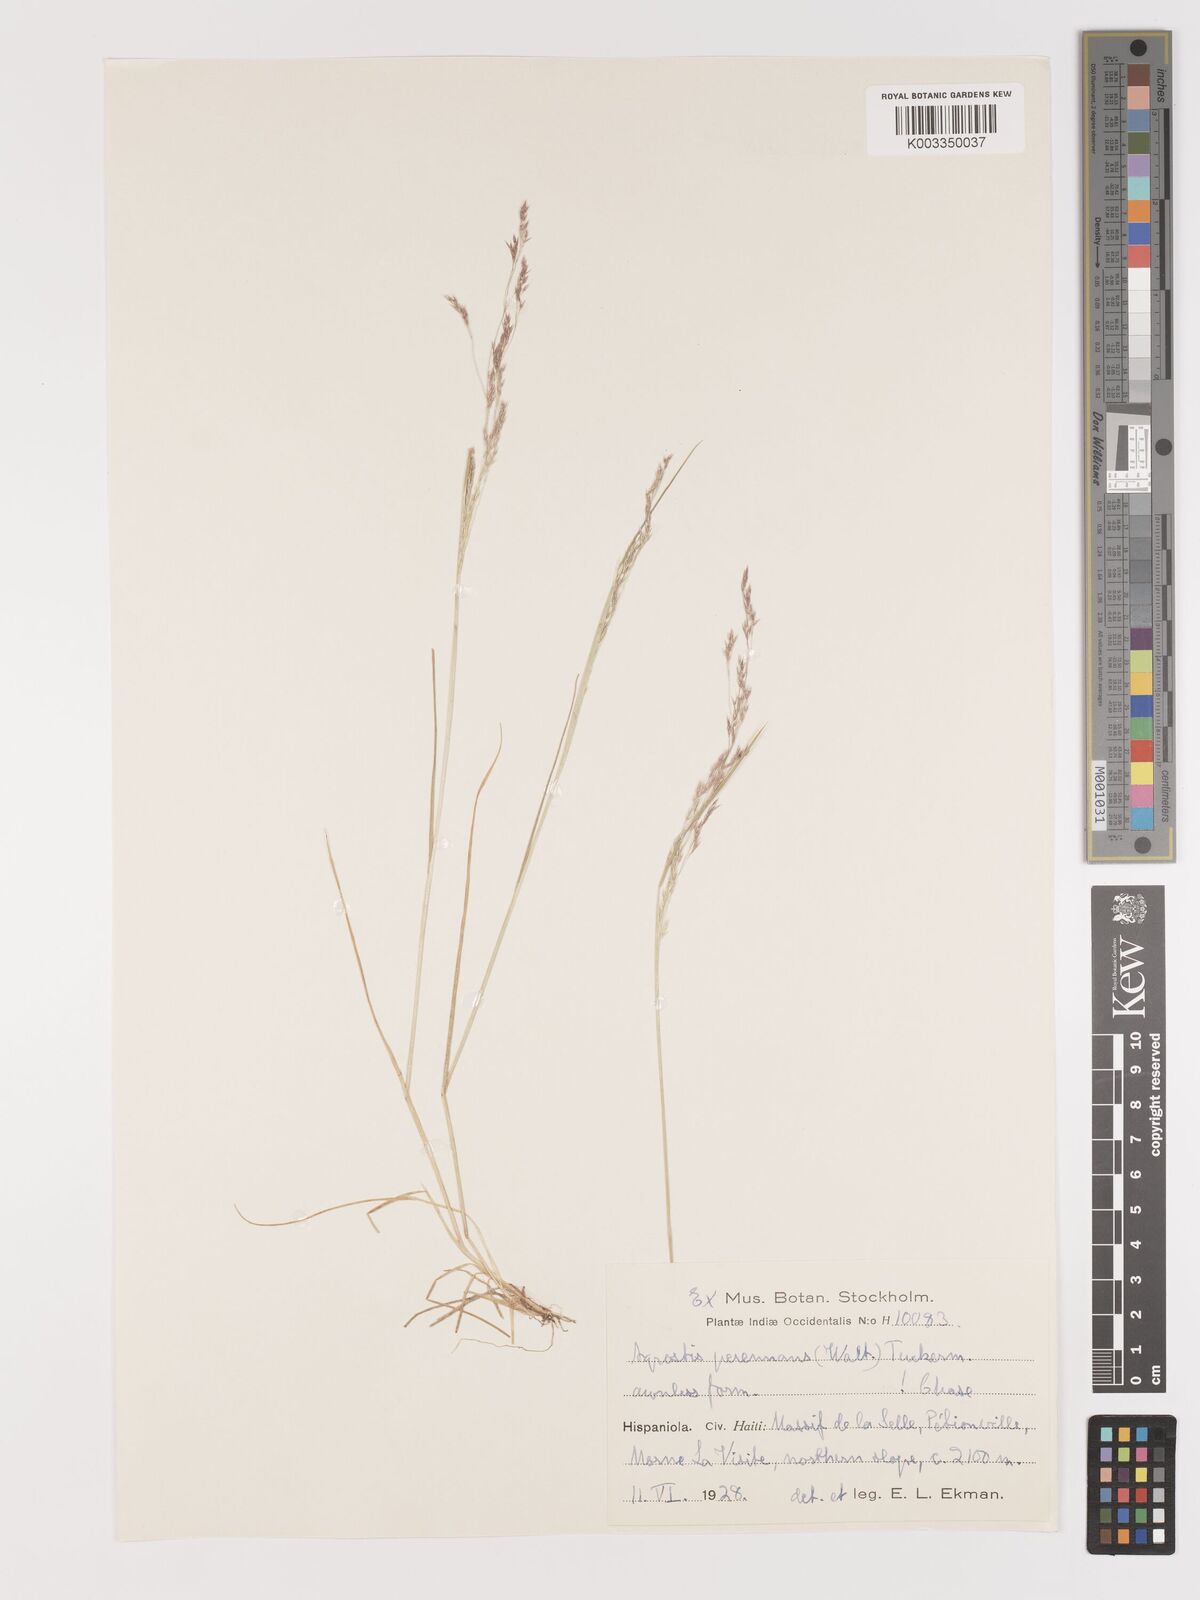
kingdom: Plantae
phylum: Tracheophyta
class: Liliopsida
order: Poales
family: Poaceae
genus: Agrostis
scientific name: Agrostis perennans
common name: Autumn bent
